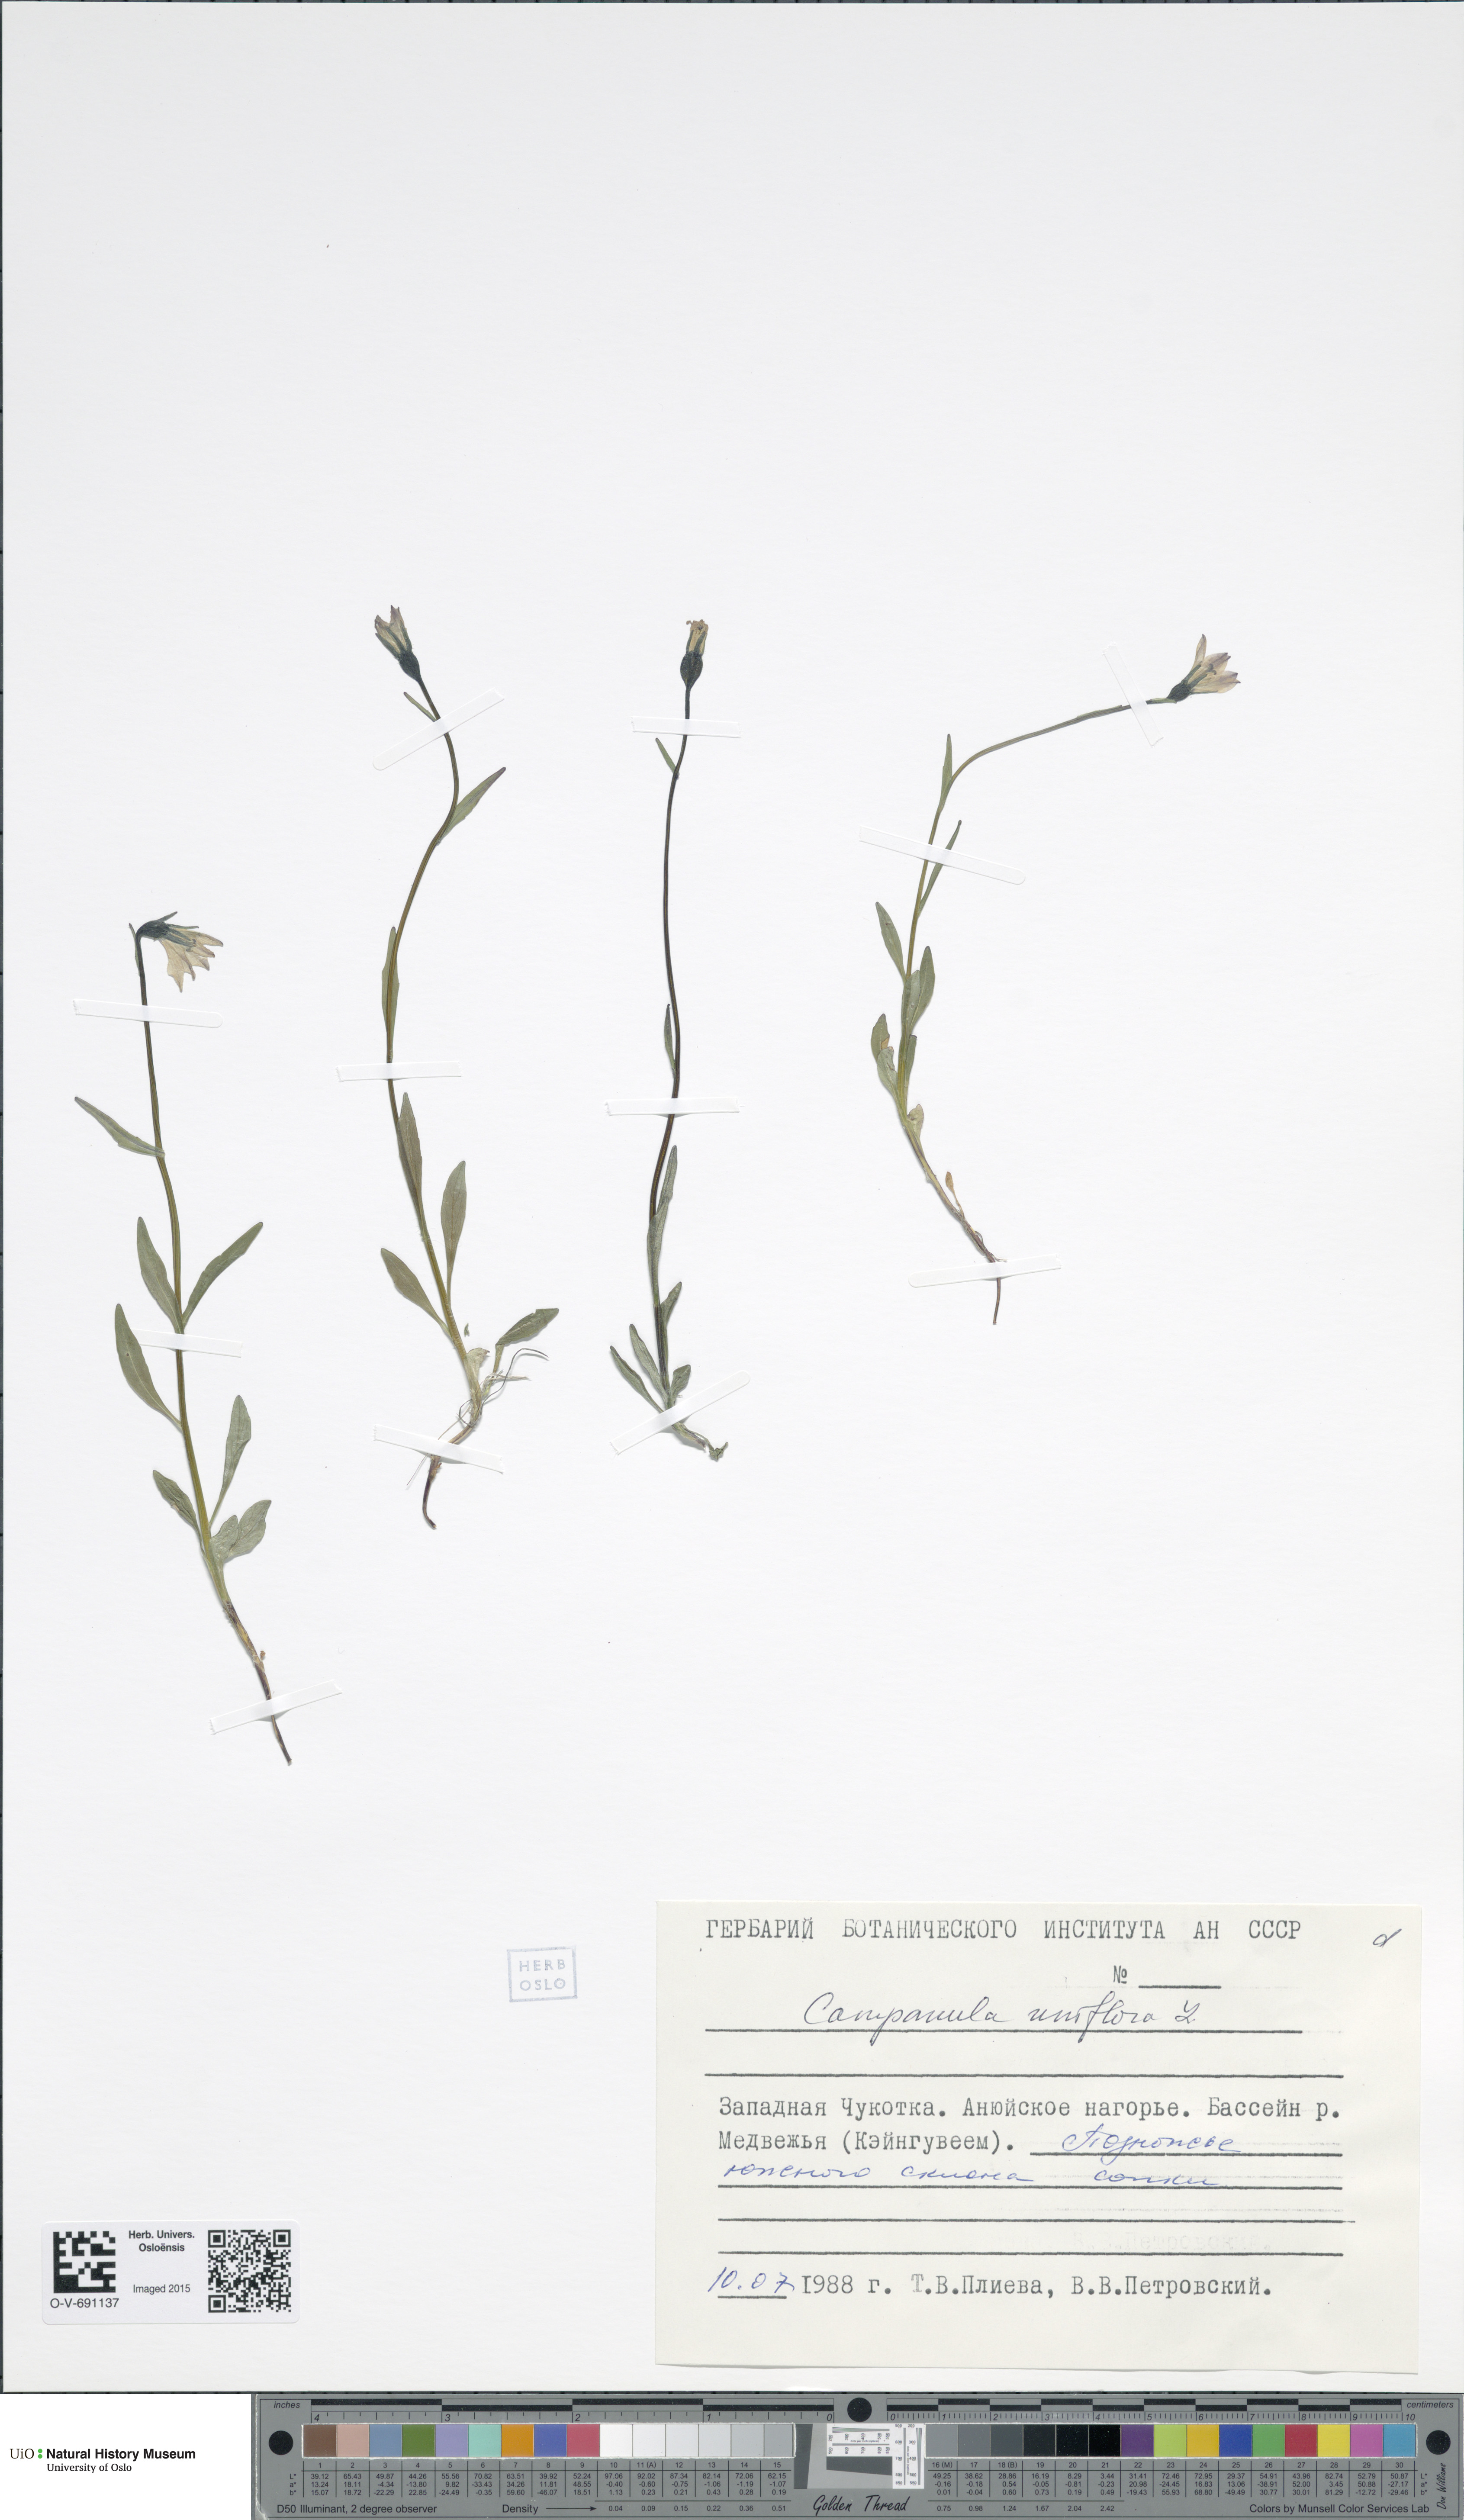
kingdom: Plantae
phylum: Tracheophyta
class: Magnoliopsida
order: Asterales
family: Campanulaceae
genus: Melanocalyx
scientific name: Melanocalyx uniflora
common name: Alpine harebell
